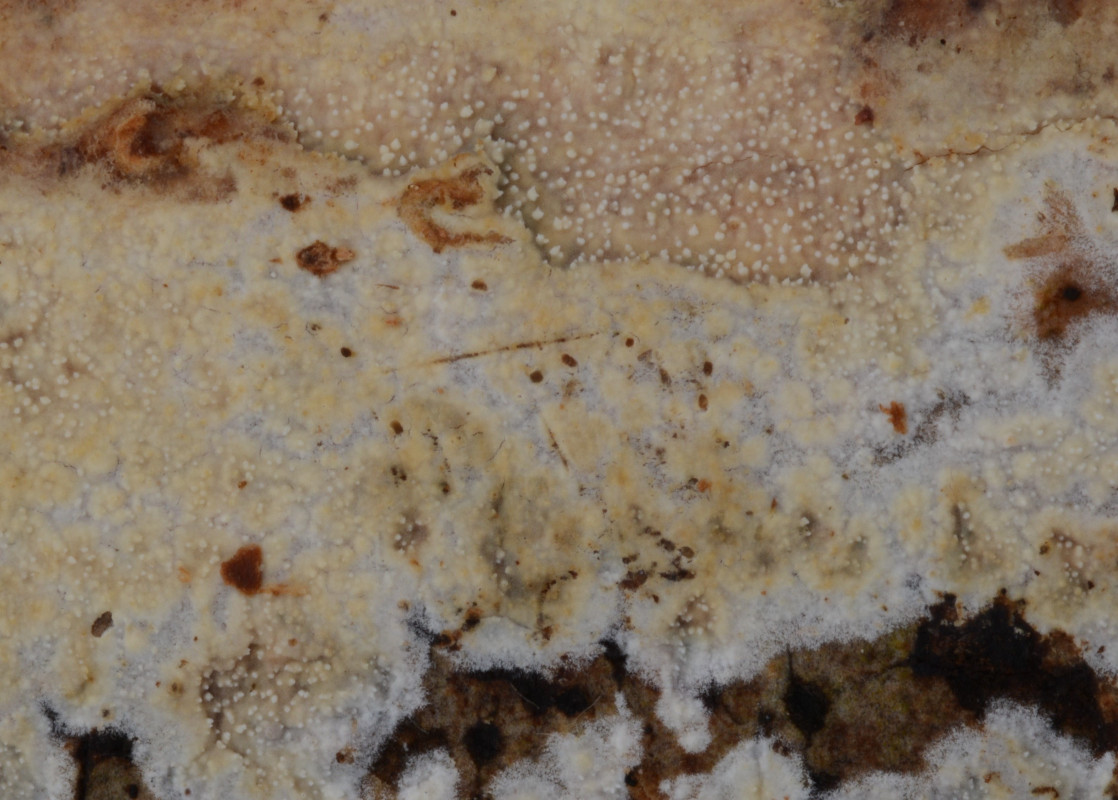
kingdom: Fungi
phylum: Basidiomycota
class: Agaricomycetes
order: Corticiales
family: Corticiaceae
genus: Lyomyces
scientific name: Lyomyces crustosus
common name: vortet hyldehinde
